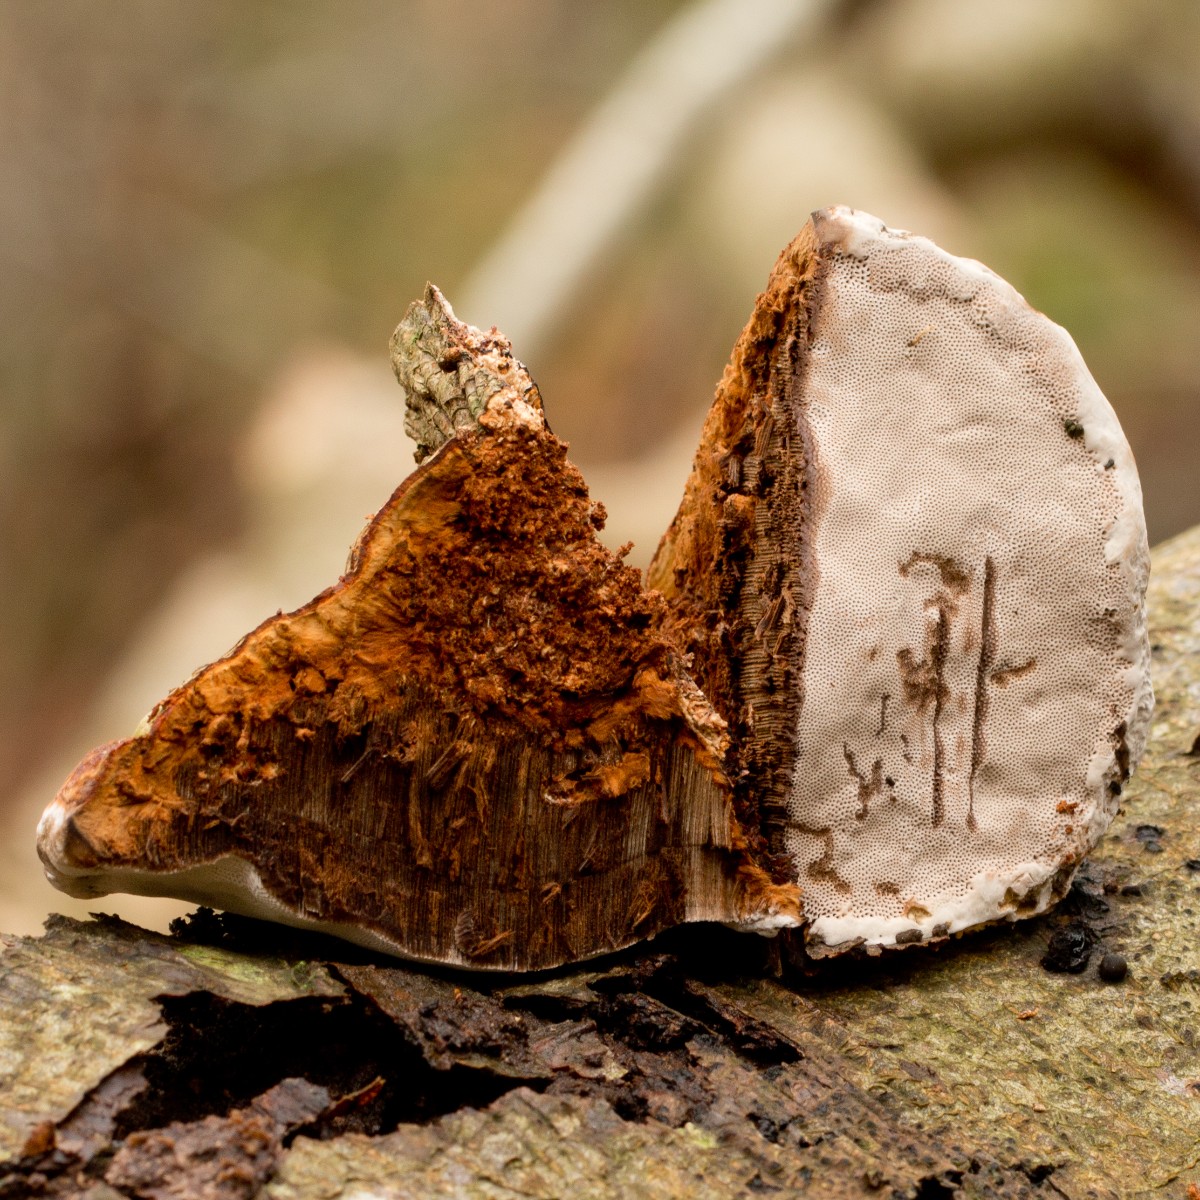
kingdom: Fungi
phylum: Basidiomycota
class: Agaricomycetes
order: Polyporales
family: Polyporaceae
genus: Fomes
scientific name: Fomes fomentarius
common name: tøndersvamp
